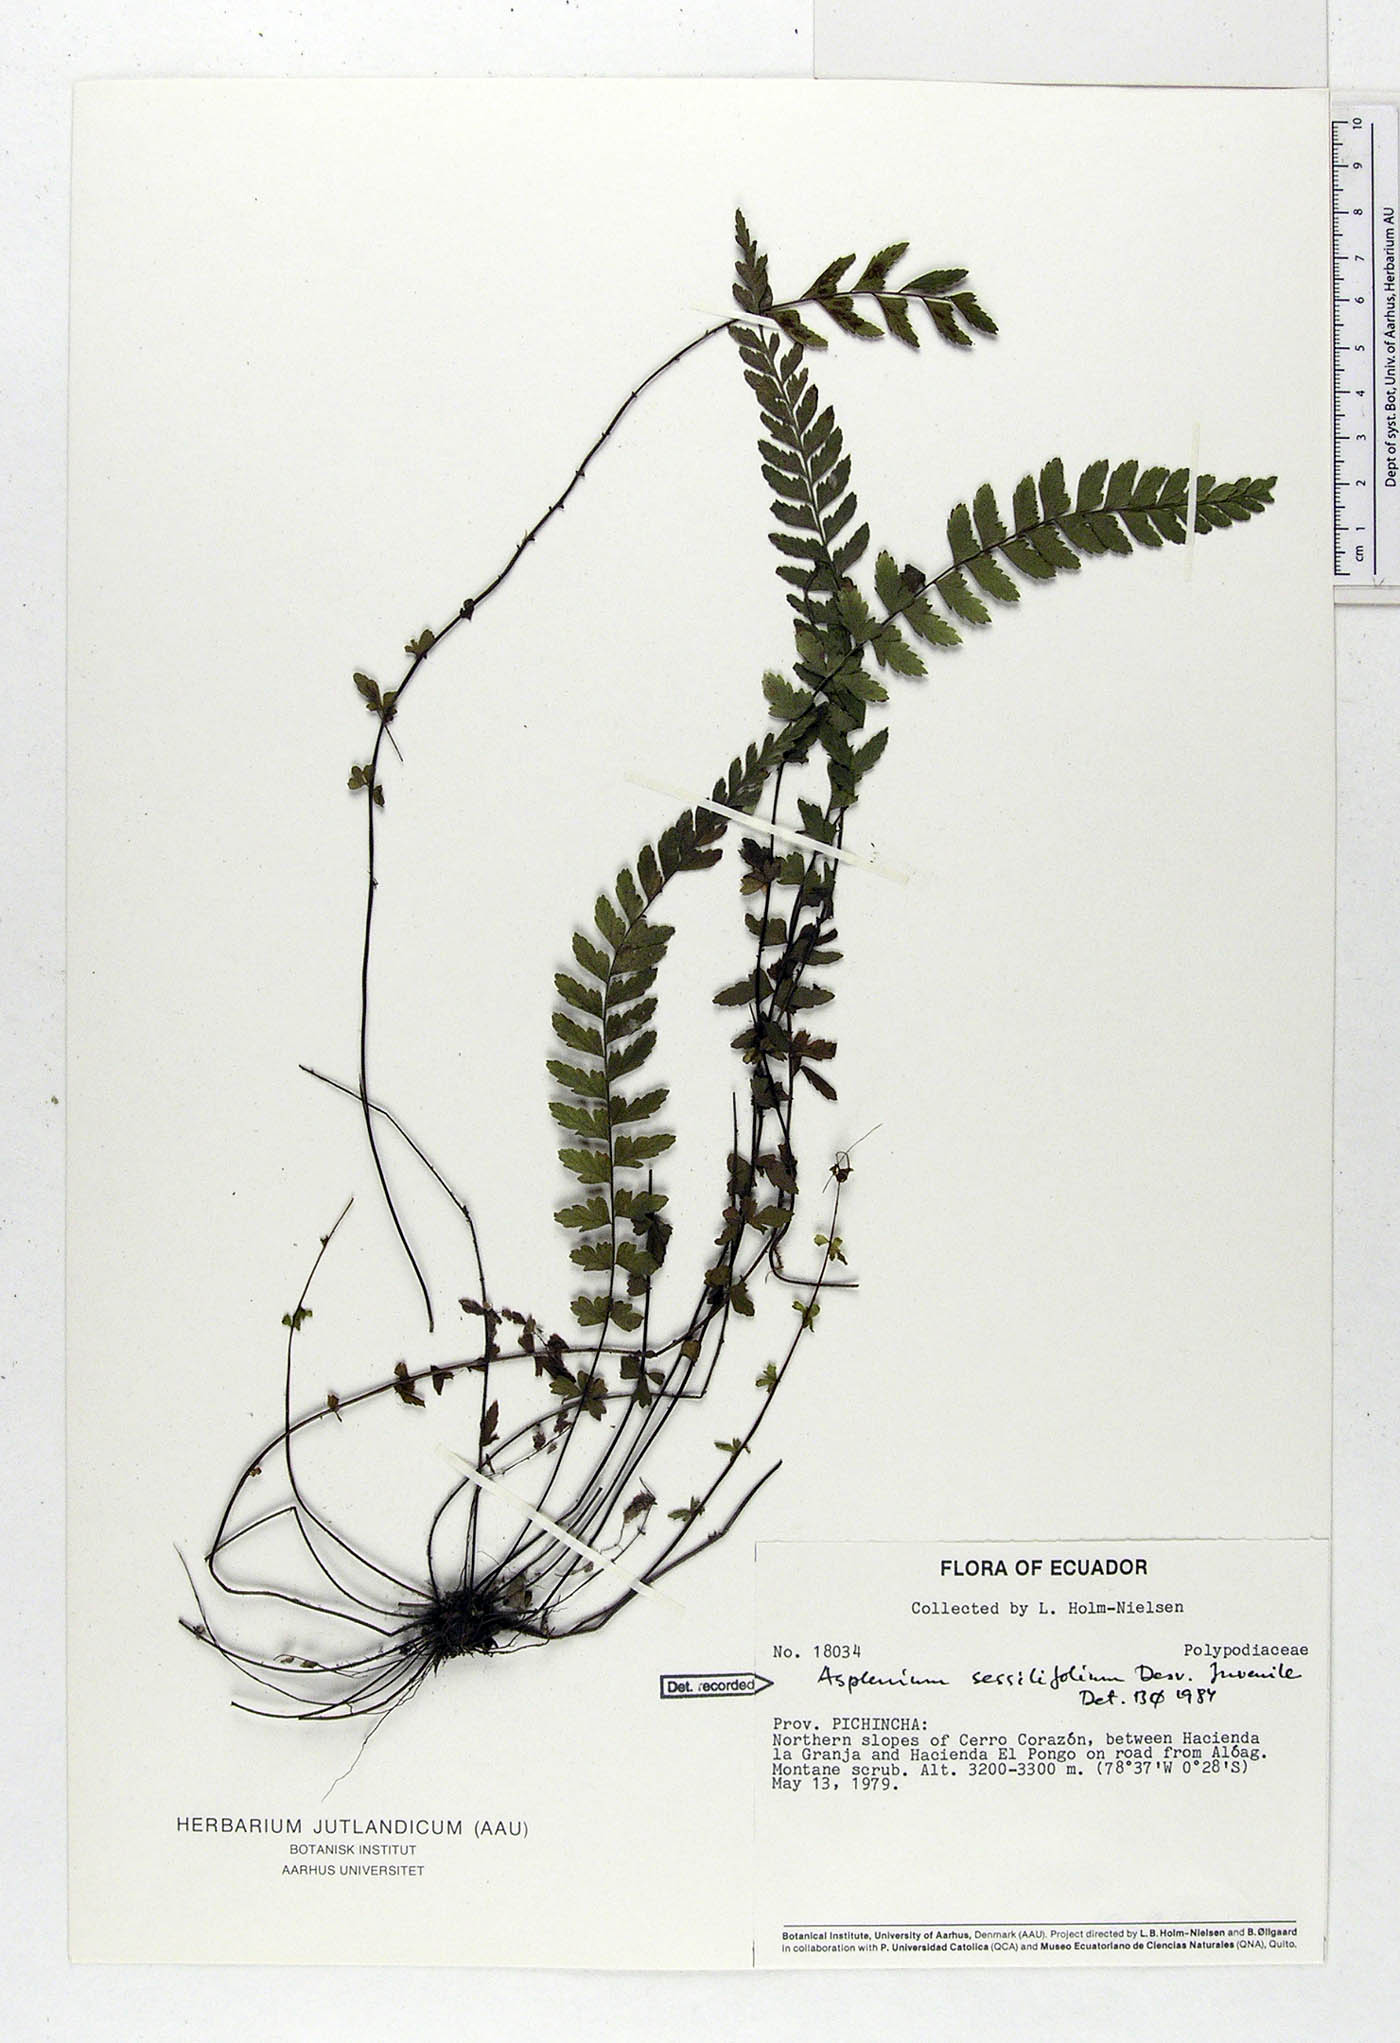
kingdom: Plantae
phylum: Tracheophyta
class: Polypodiopsida
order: Polypodiales
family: Aspleniaceae
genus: Asplenium
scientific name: Asplenium sessilifolium
